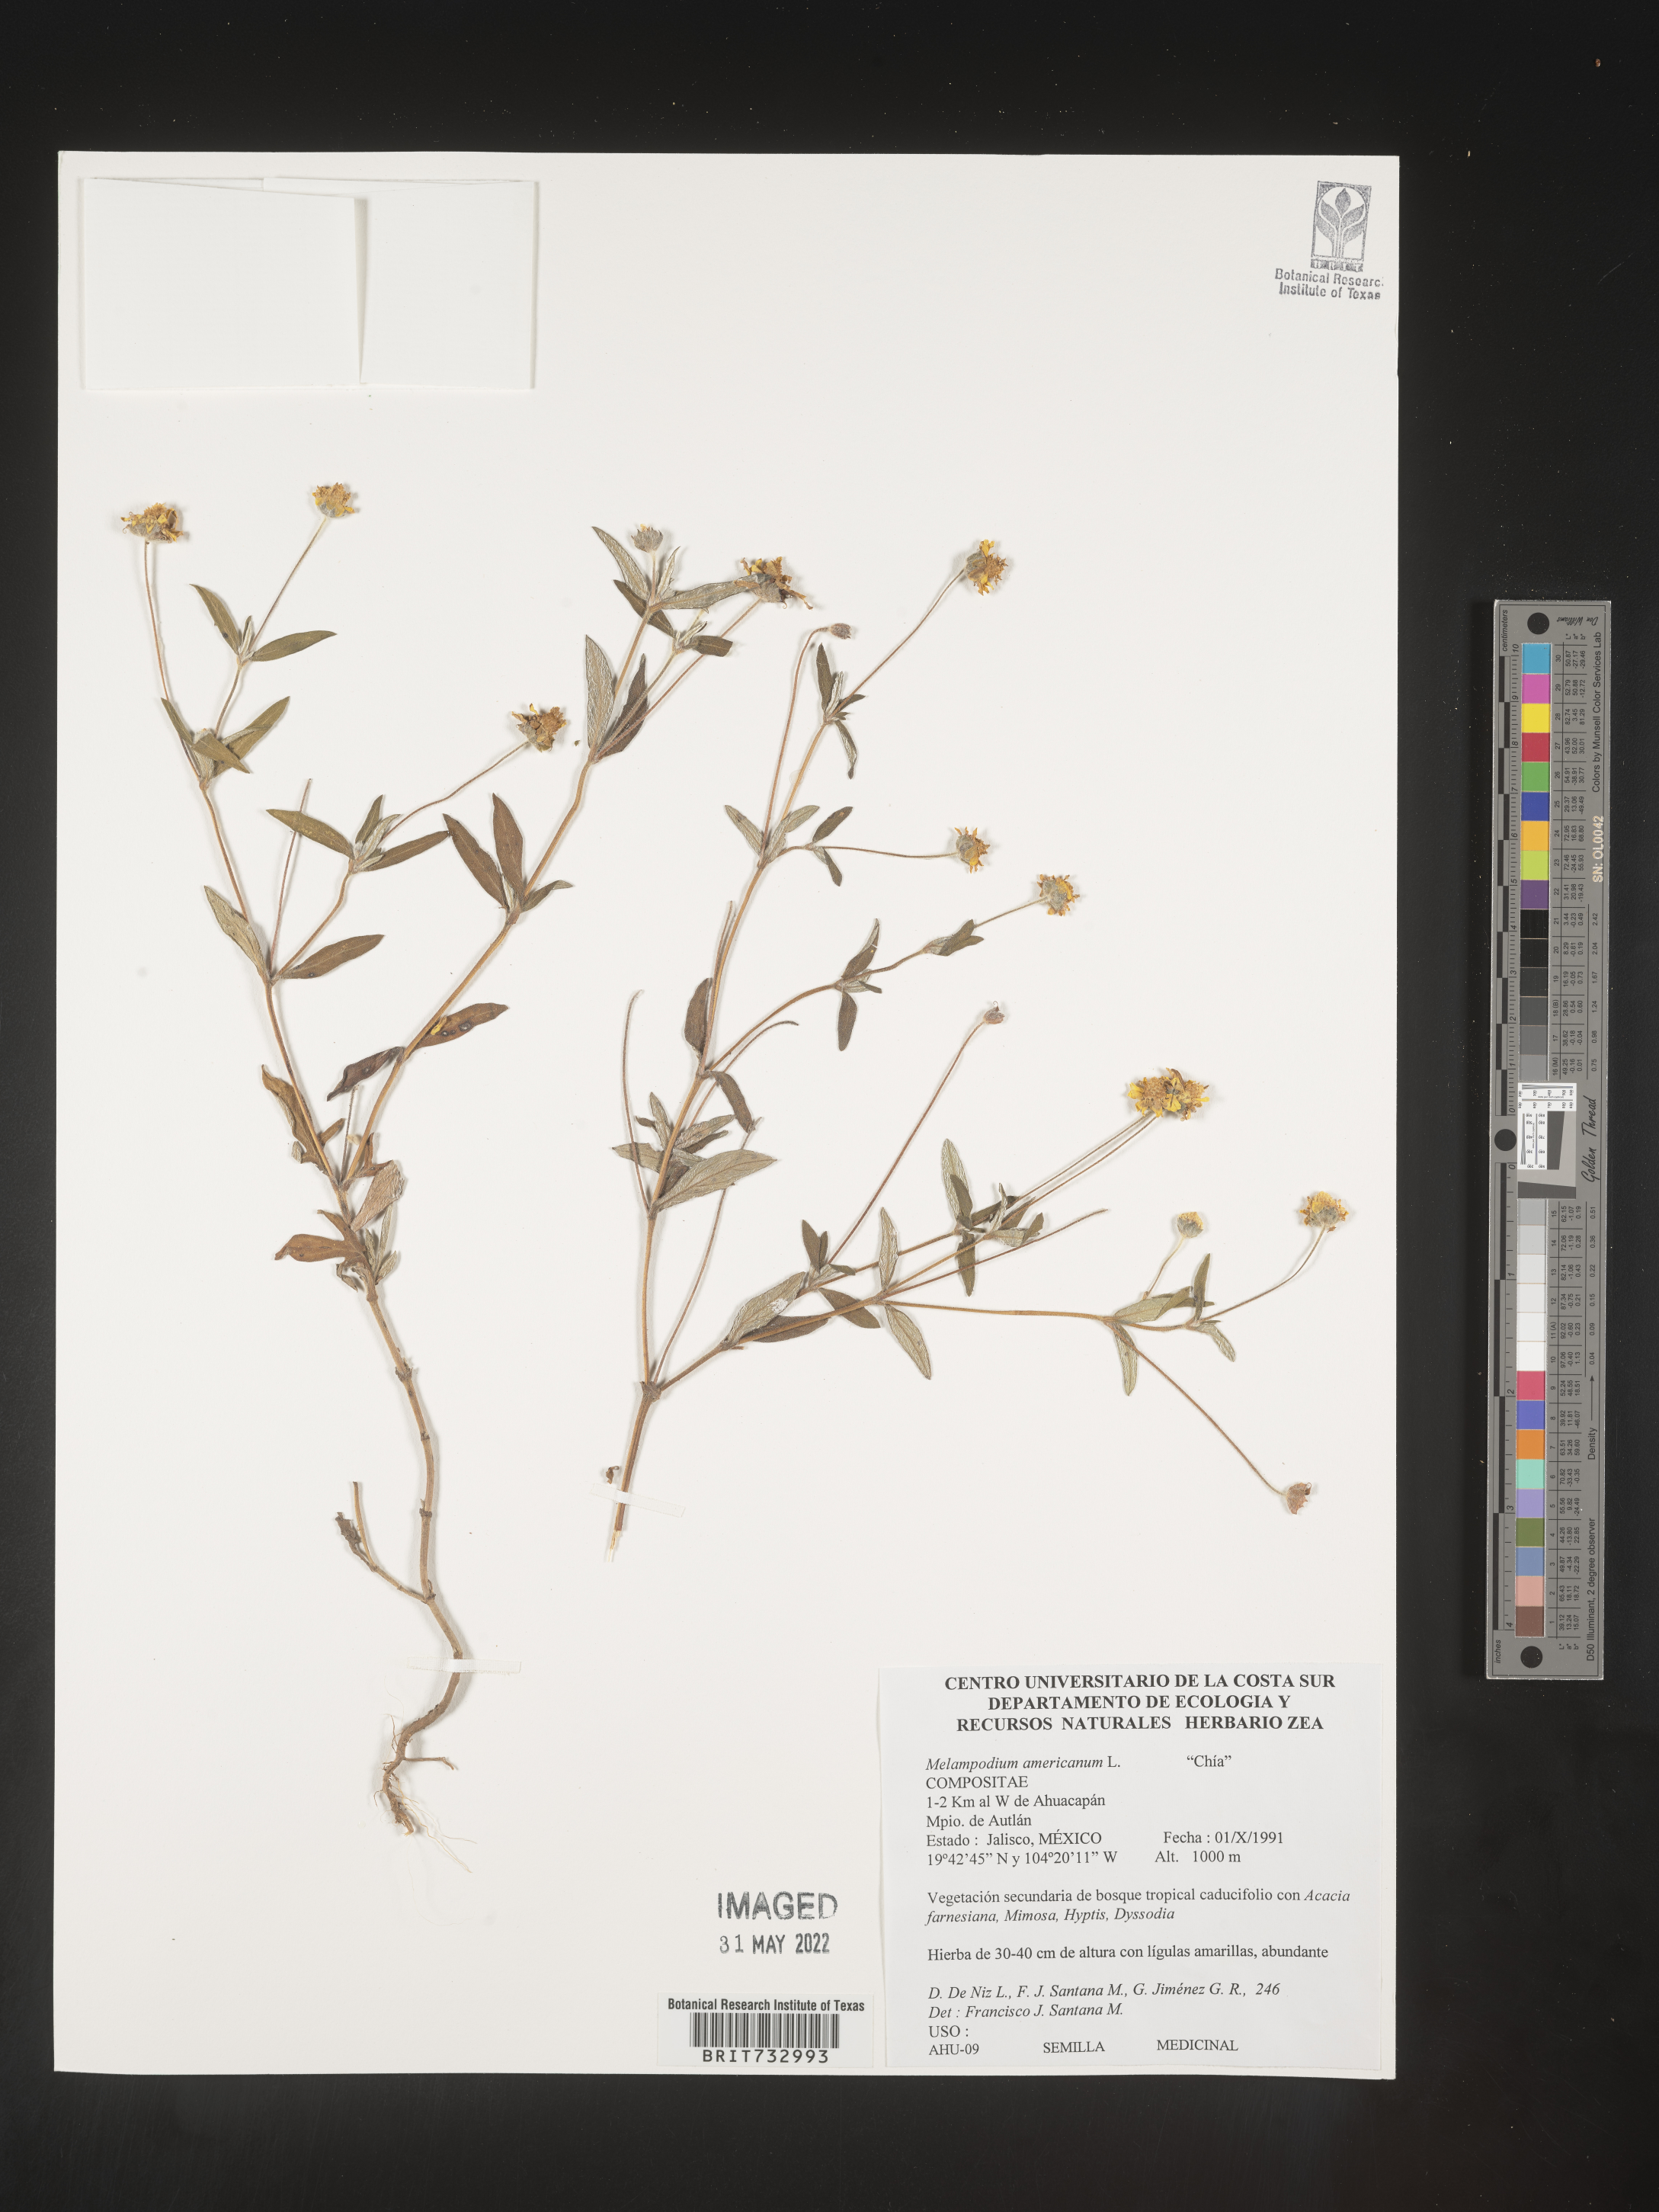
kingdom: Plantae
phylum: Tracheophyta
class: Magnoliopsida
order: Asterales
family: Asteraceae
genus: Melampodium
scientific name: Melampodium
